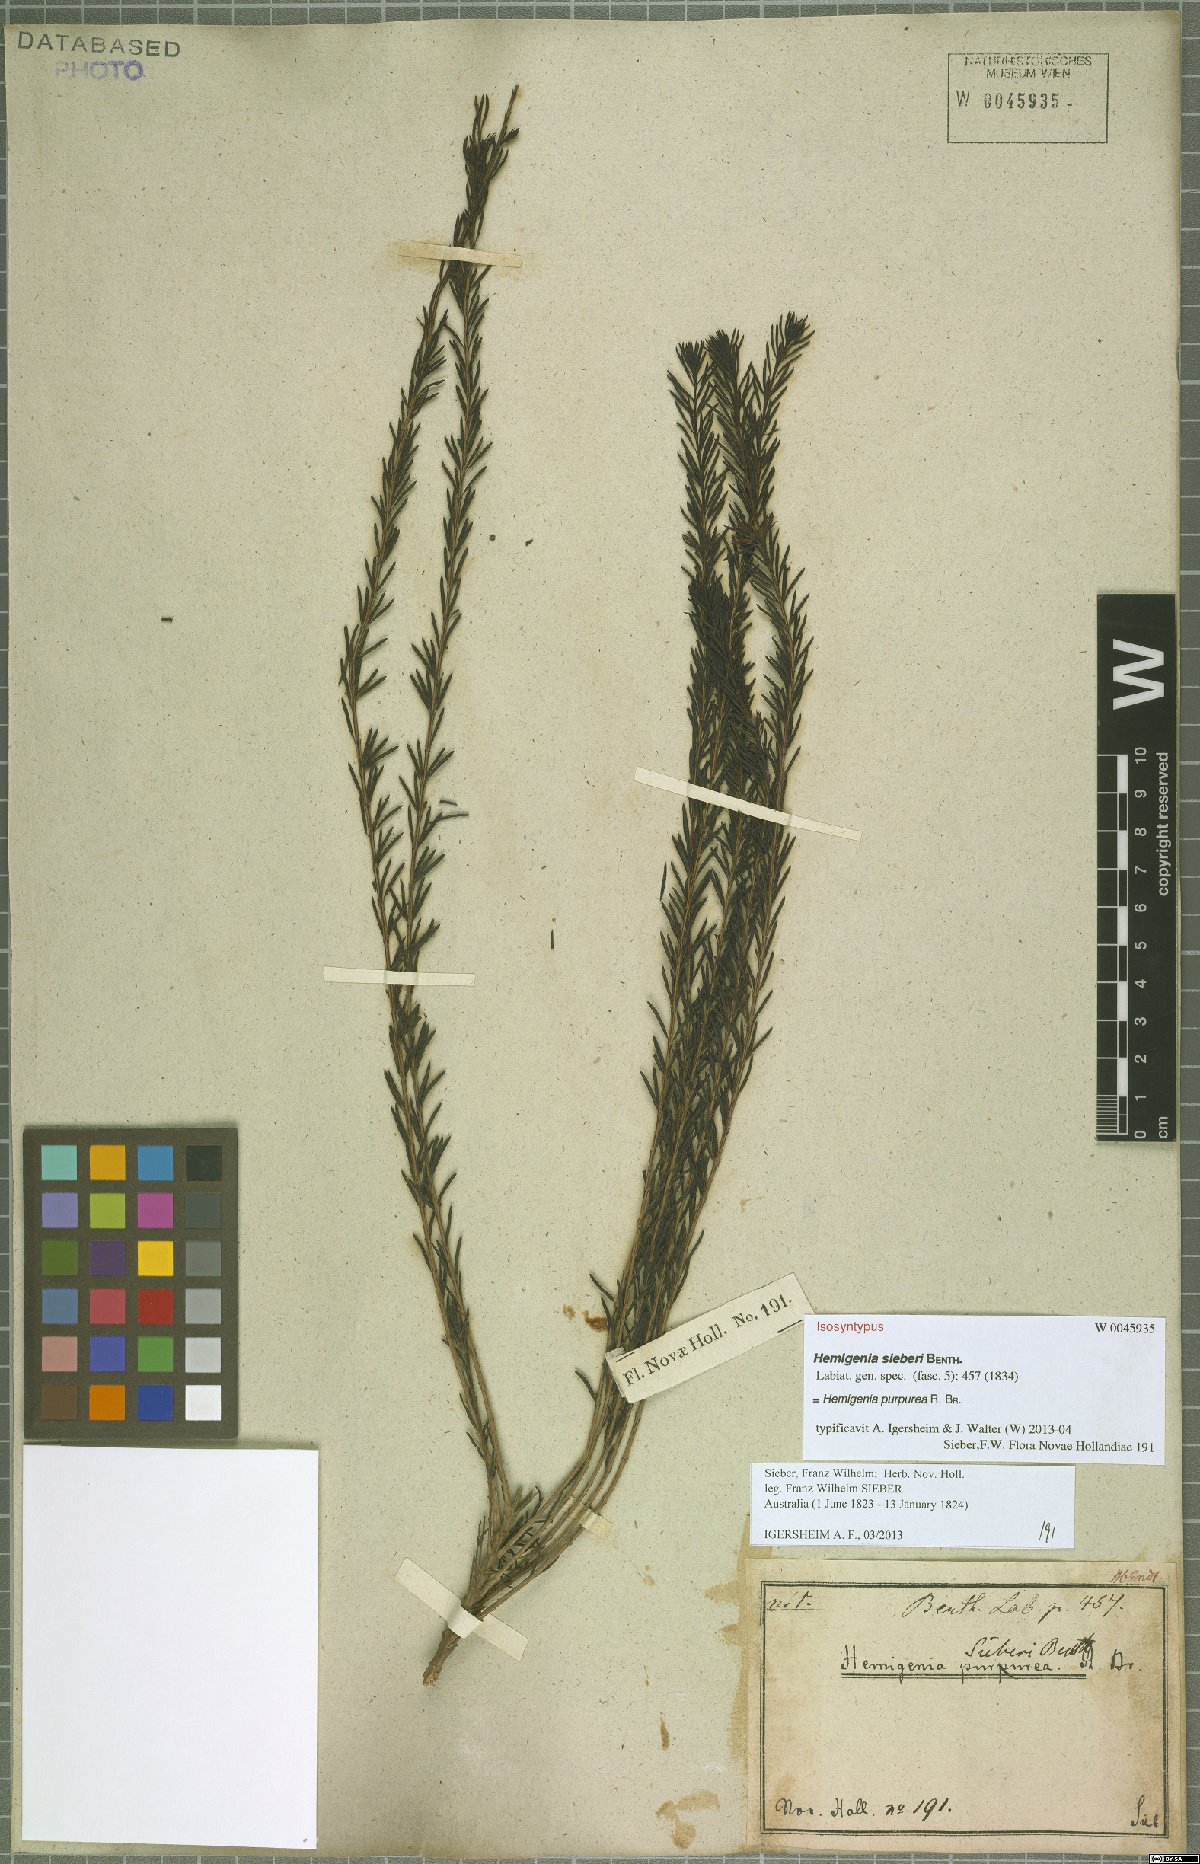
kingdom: Plantae
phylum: Tracheophyta
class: Magnoliopsida
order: Lamiales
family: Lamiaceae
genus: Hemigenia
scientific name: Hemigenia purpurea
